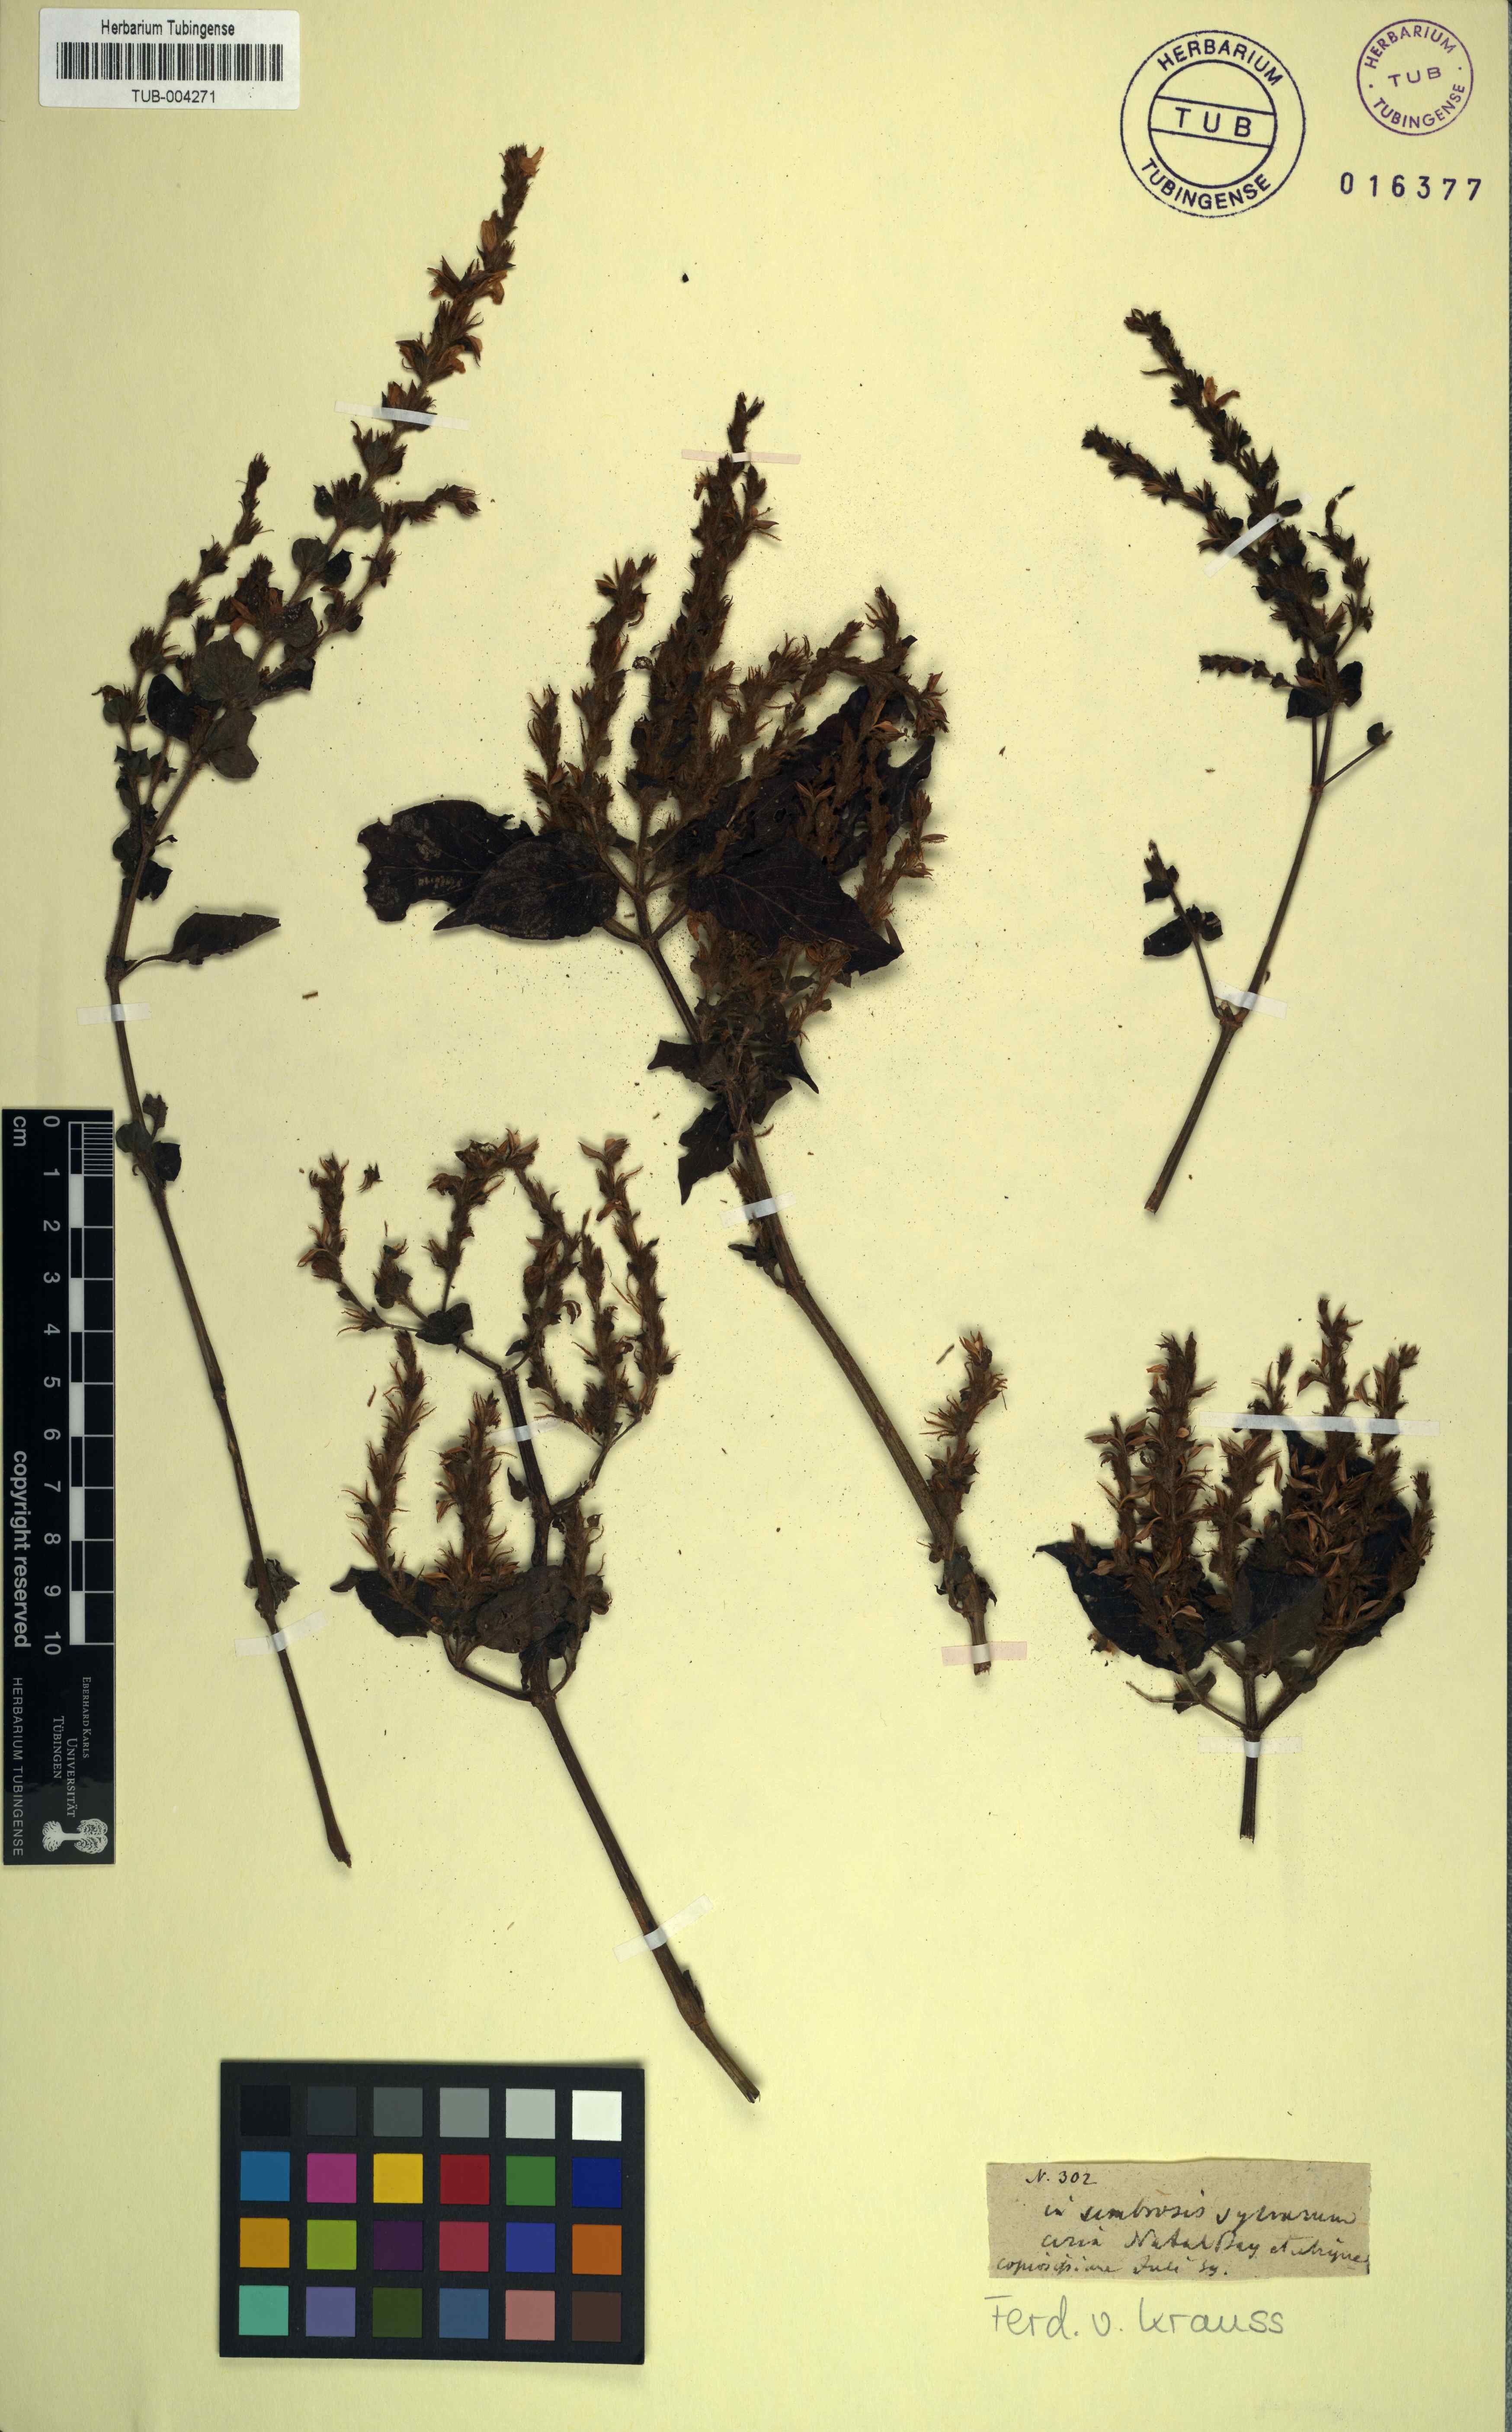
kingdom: Plantae
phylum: Tracheophyta
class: Magnoliopsida
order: Lamiales
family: Acanthaceae
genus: Ruellia
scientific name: Ruellia blechioides
